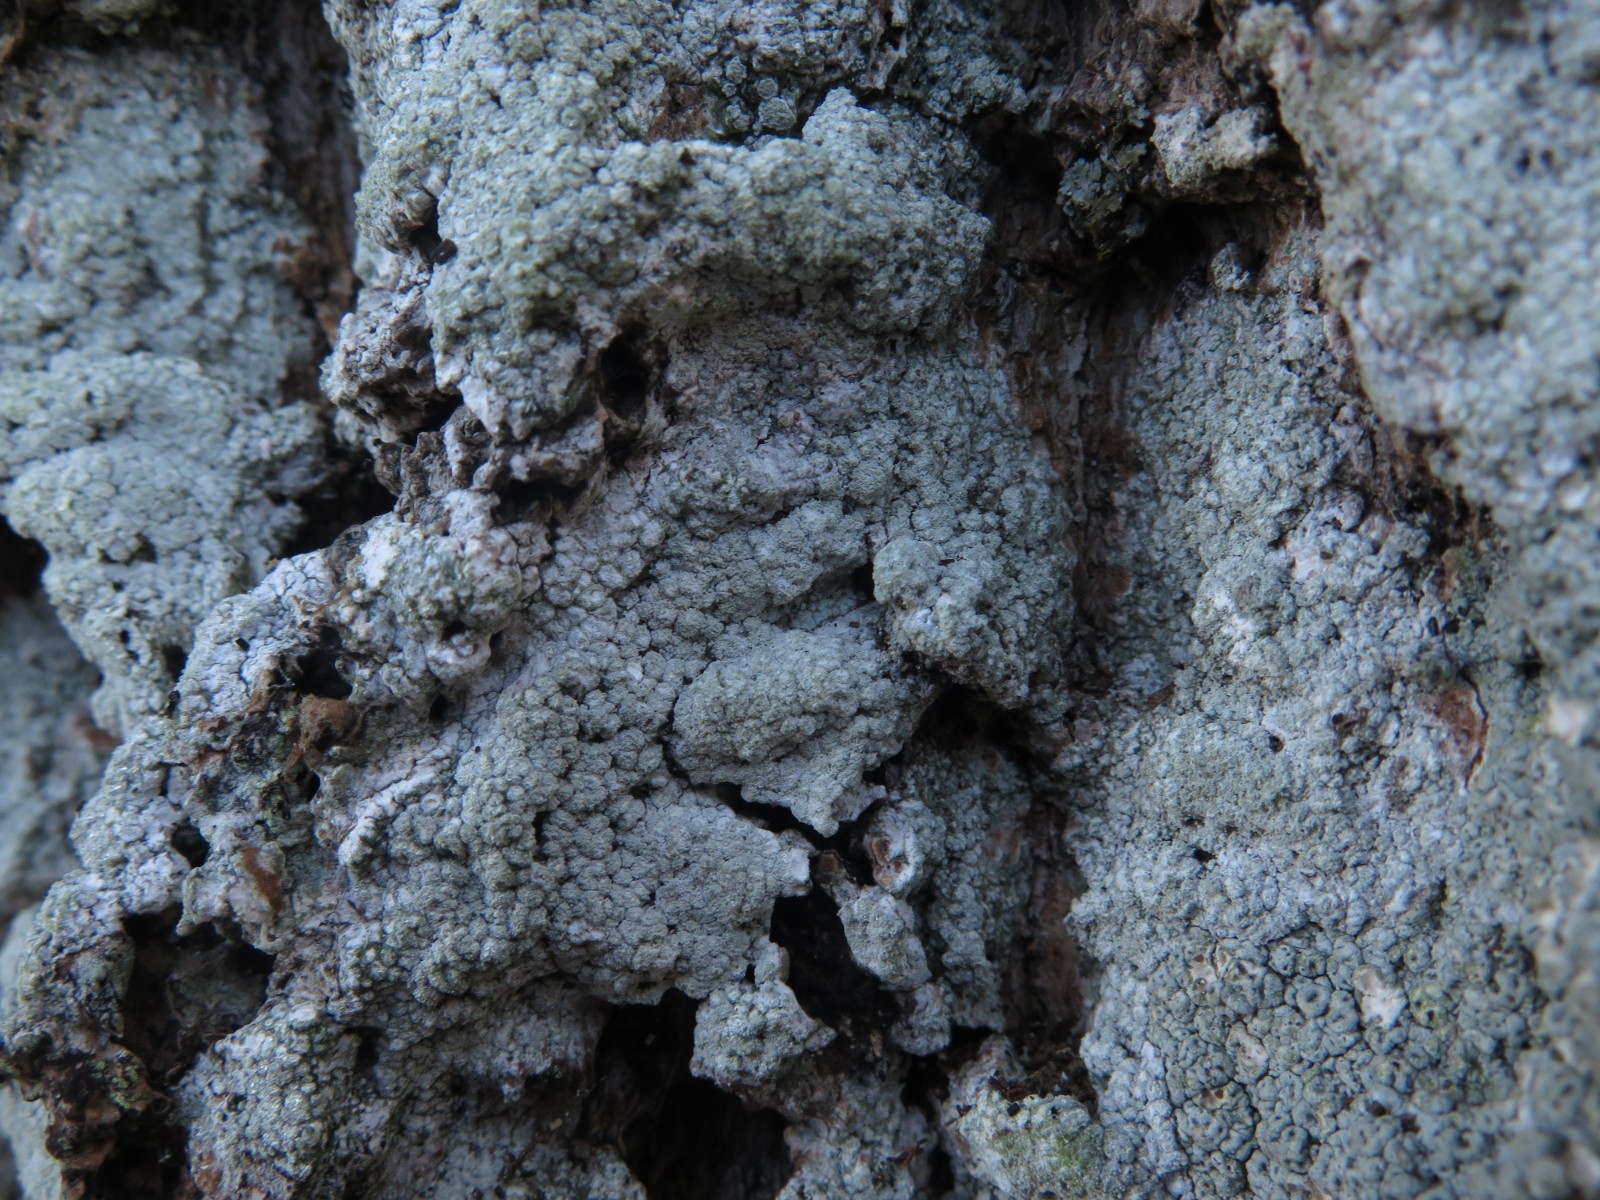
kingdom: Fungi
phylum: Ascomycota
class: Lecanoromycetes
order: Pertusariales
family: Pertusariaceae
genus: Lepra
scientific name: Lepra amara
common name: bitter prikvortelav
